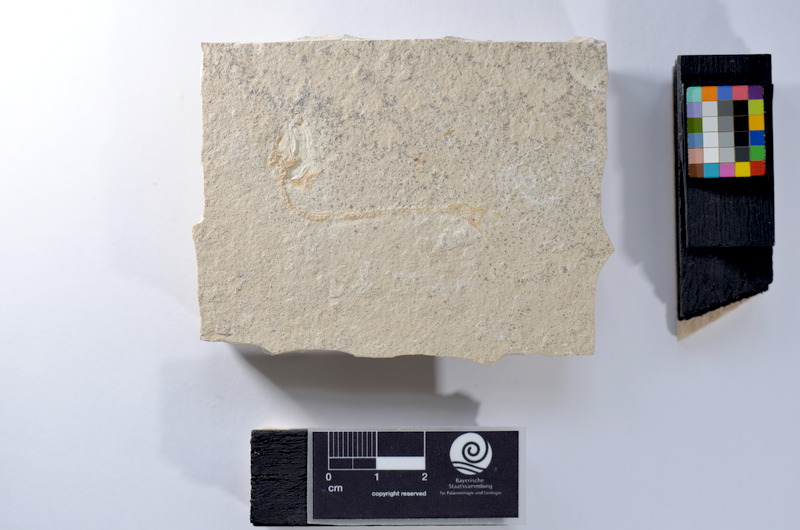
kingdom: Animalia
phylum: Chordata
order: Salmoniformes
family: Orthogonikleithridae
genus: Leptolepides
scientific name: Leptolepides
